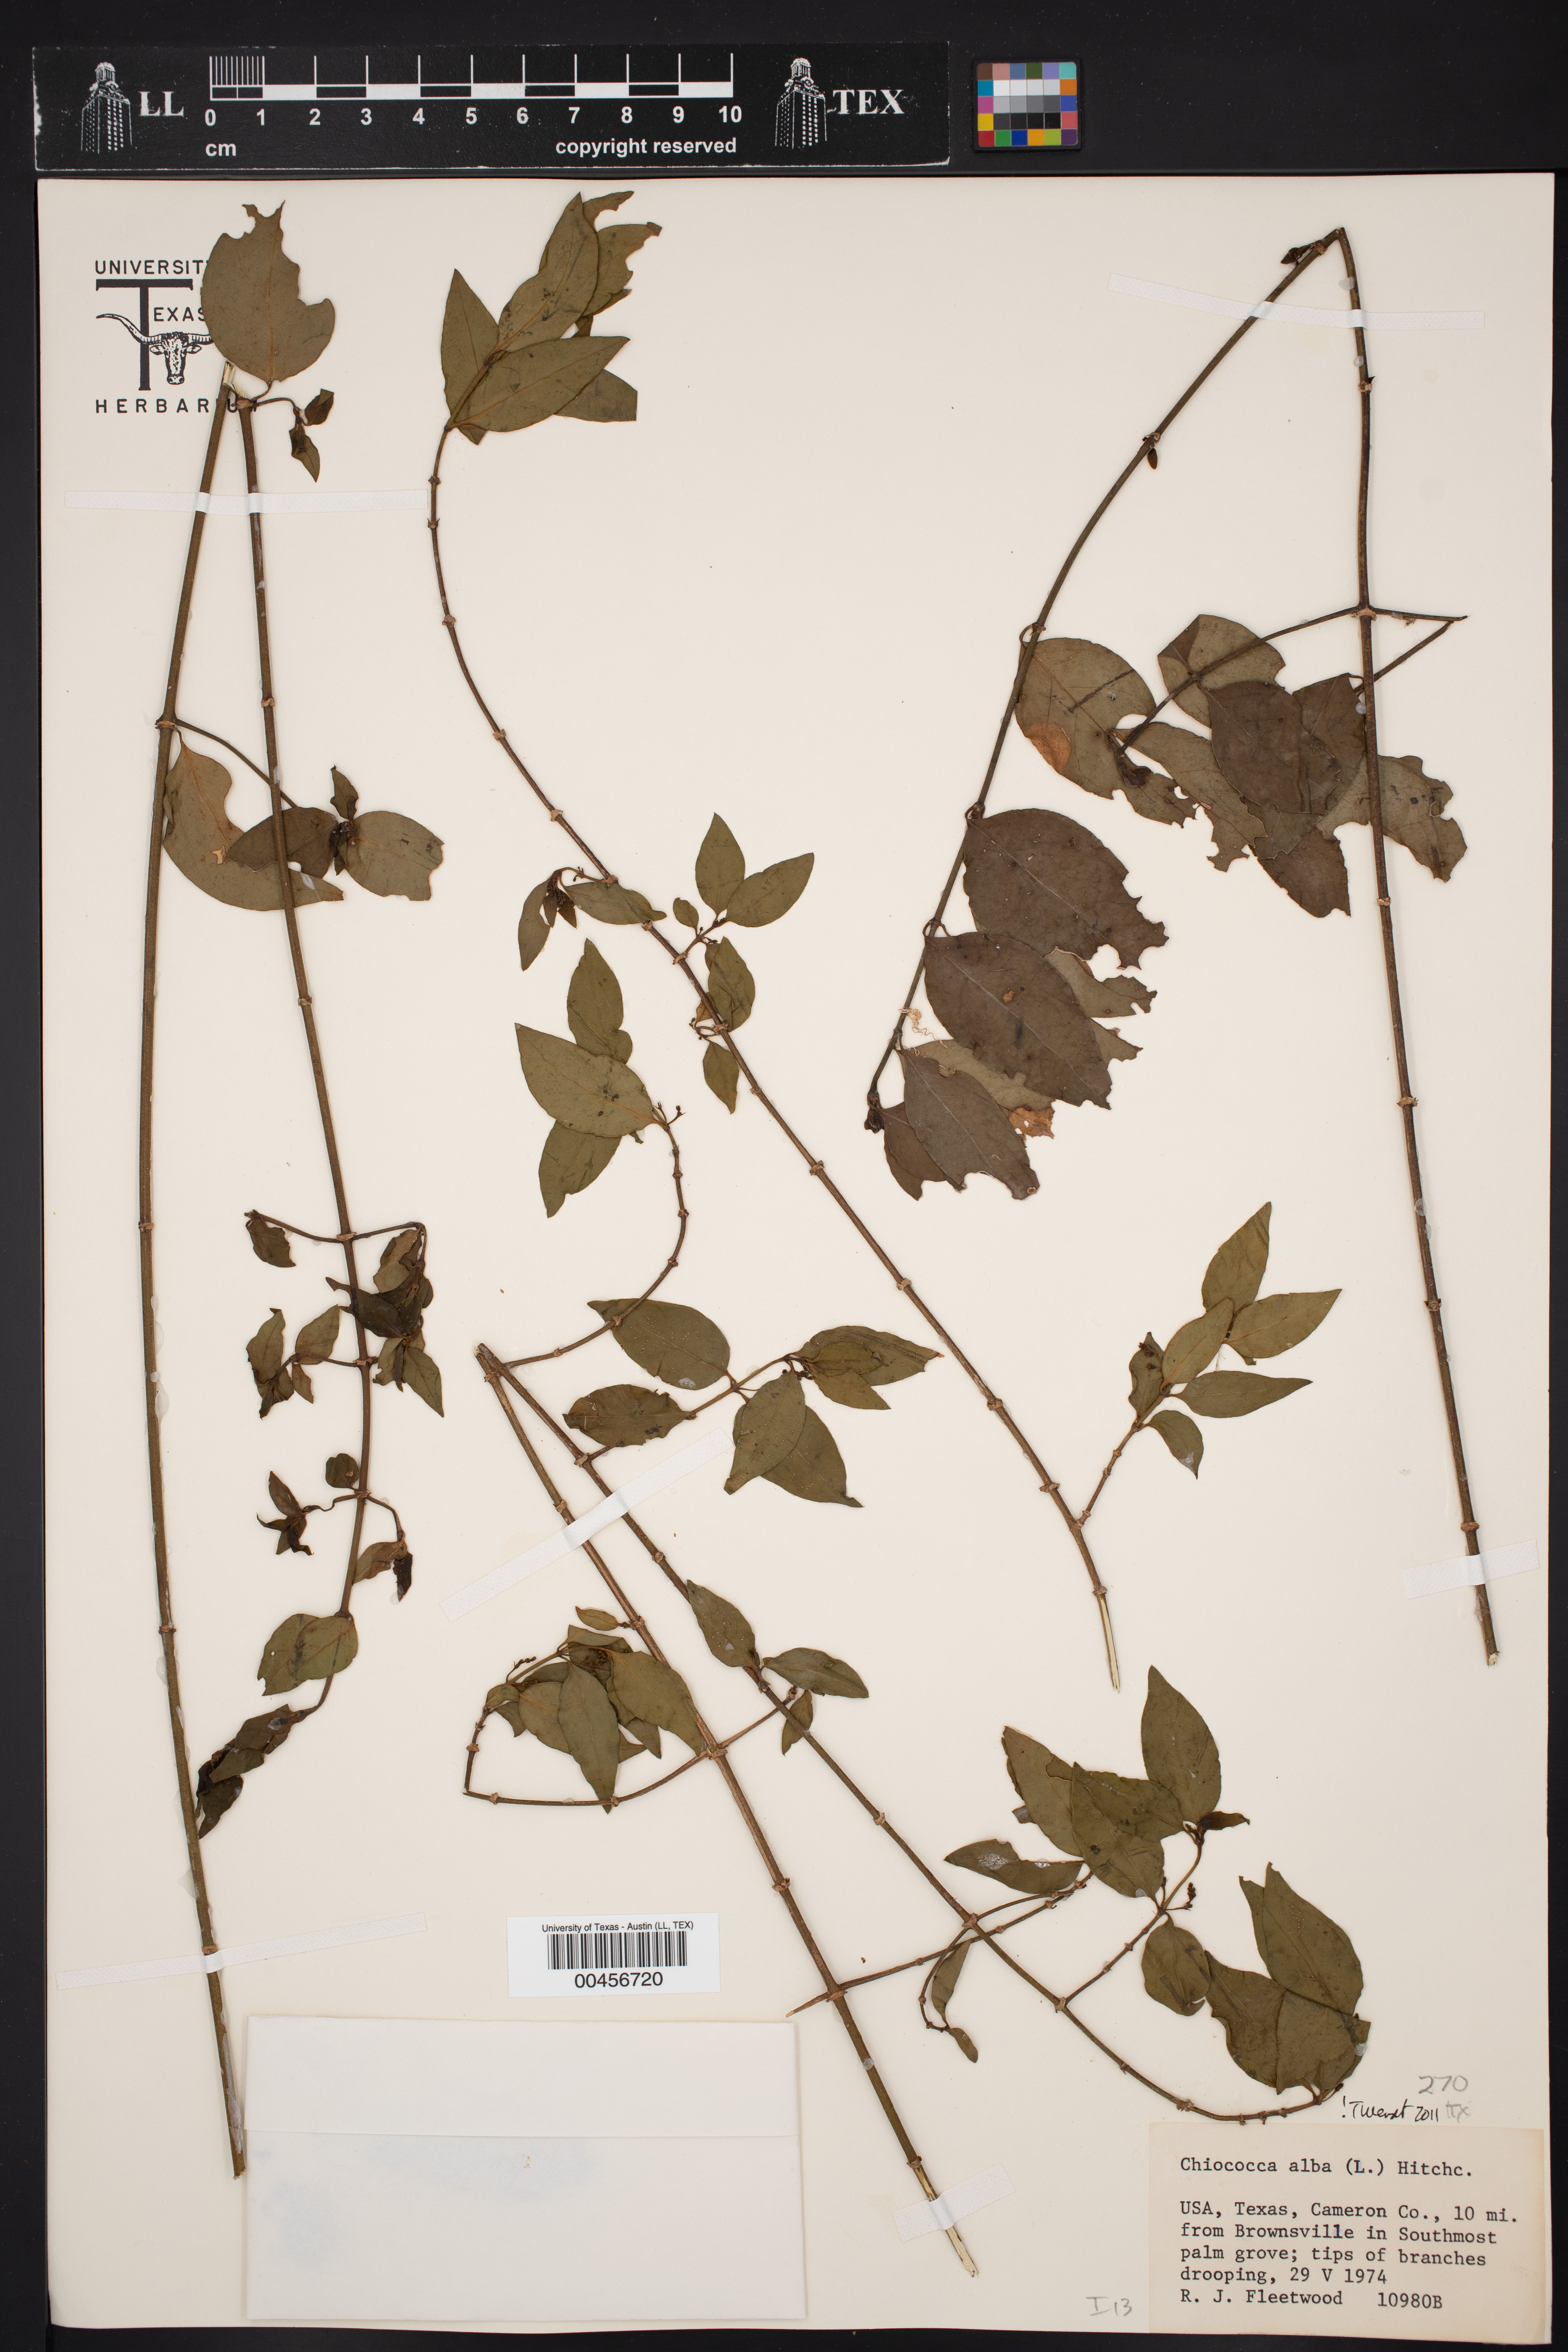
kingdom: Plantae
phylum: Tracheophyta
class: Magnoliopsida
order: Gentianales
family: Rubiaceae
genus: Chiococca
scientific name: Chiococca alba
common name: Snowberry
